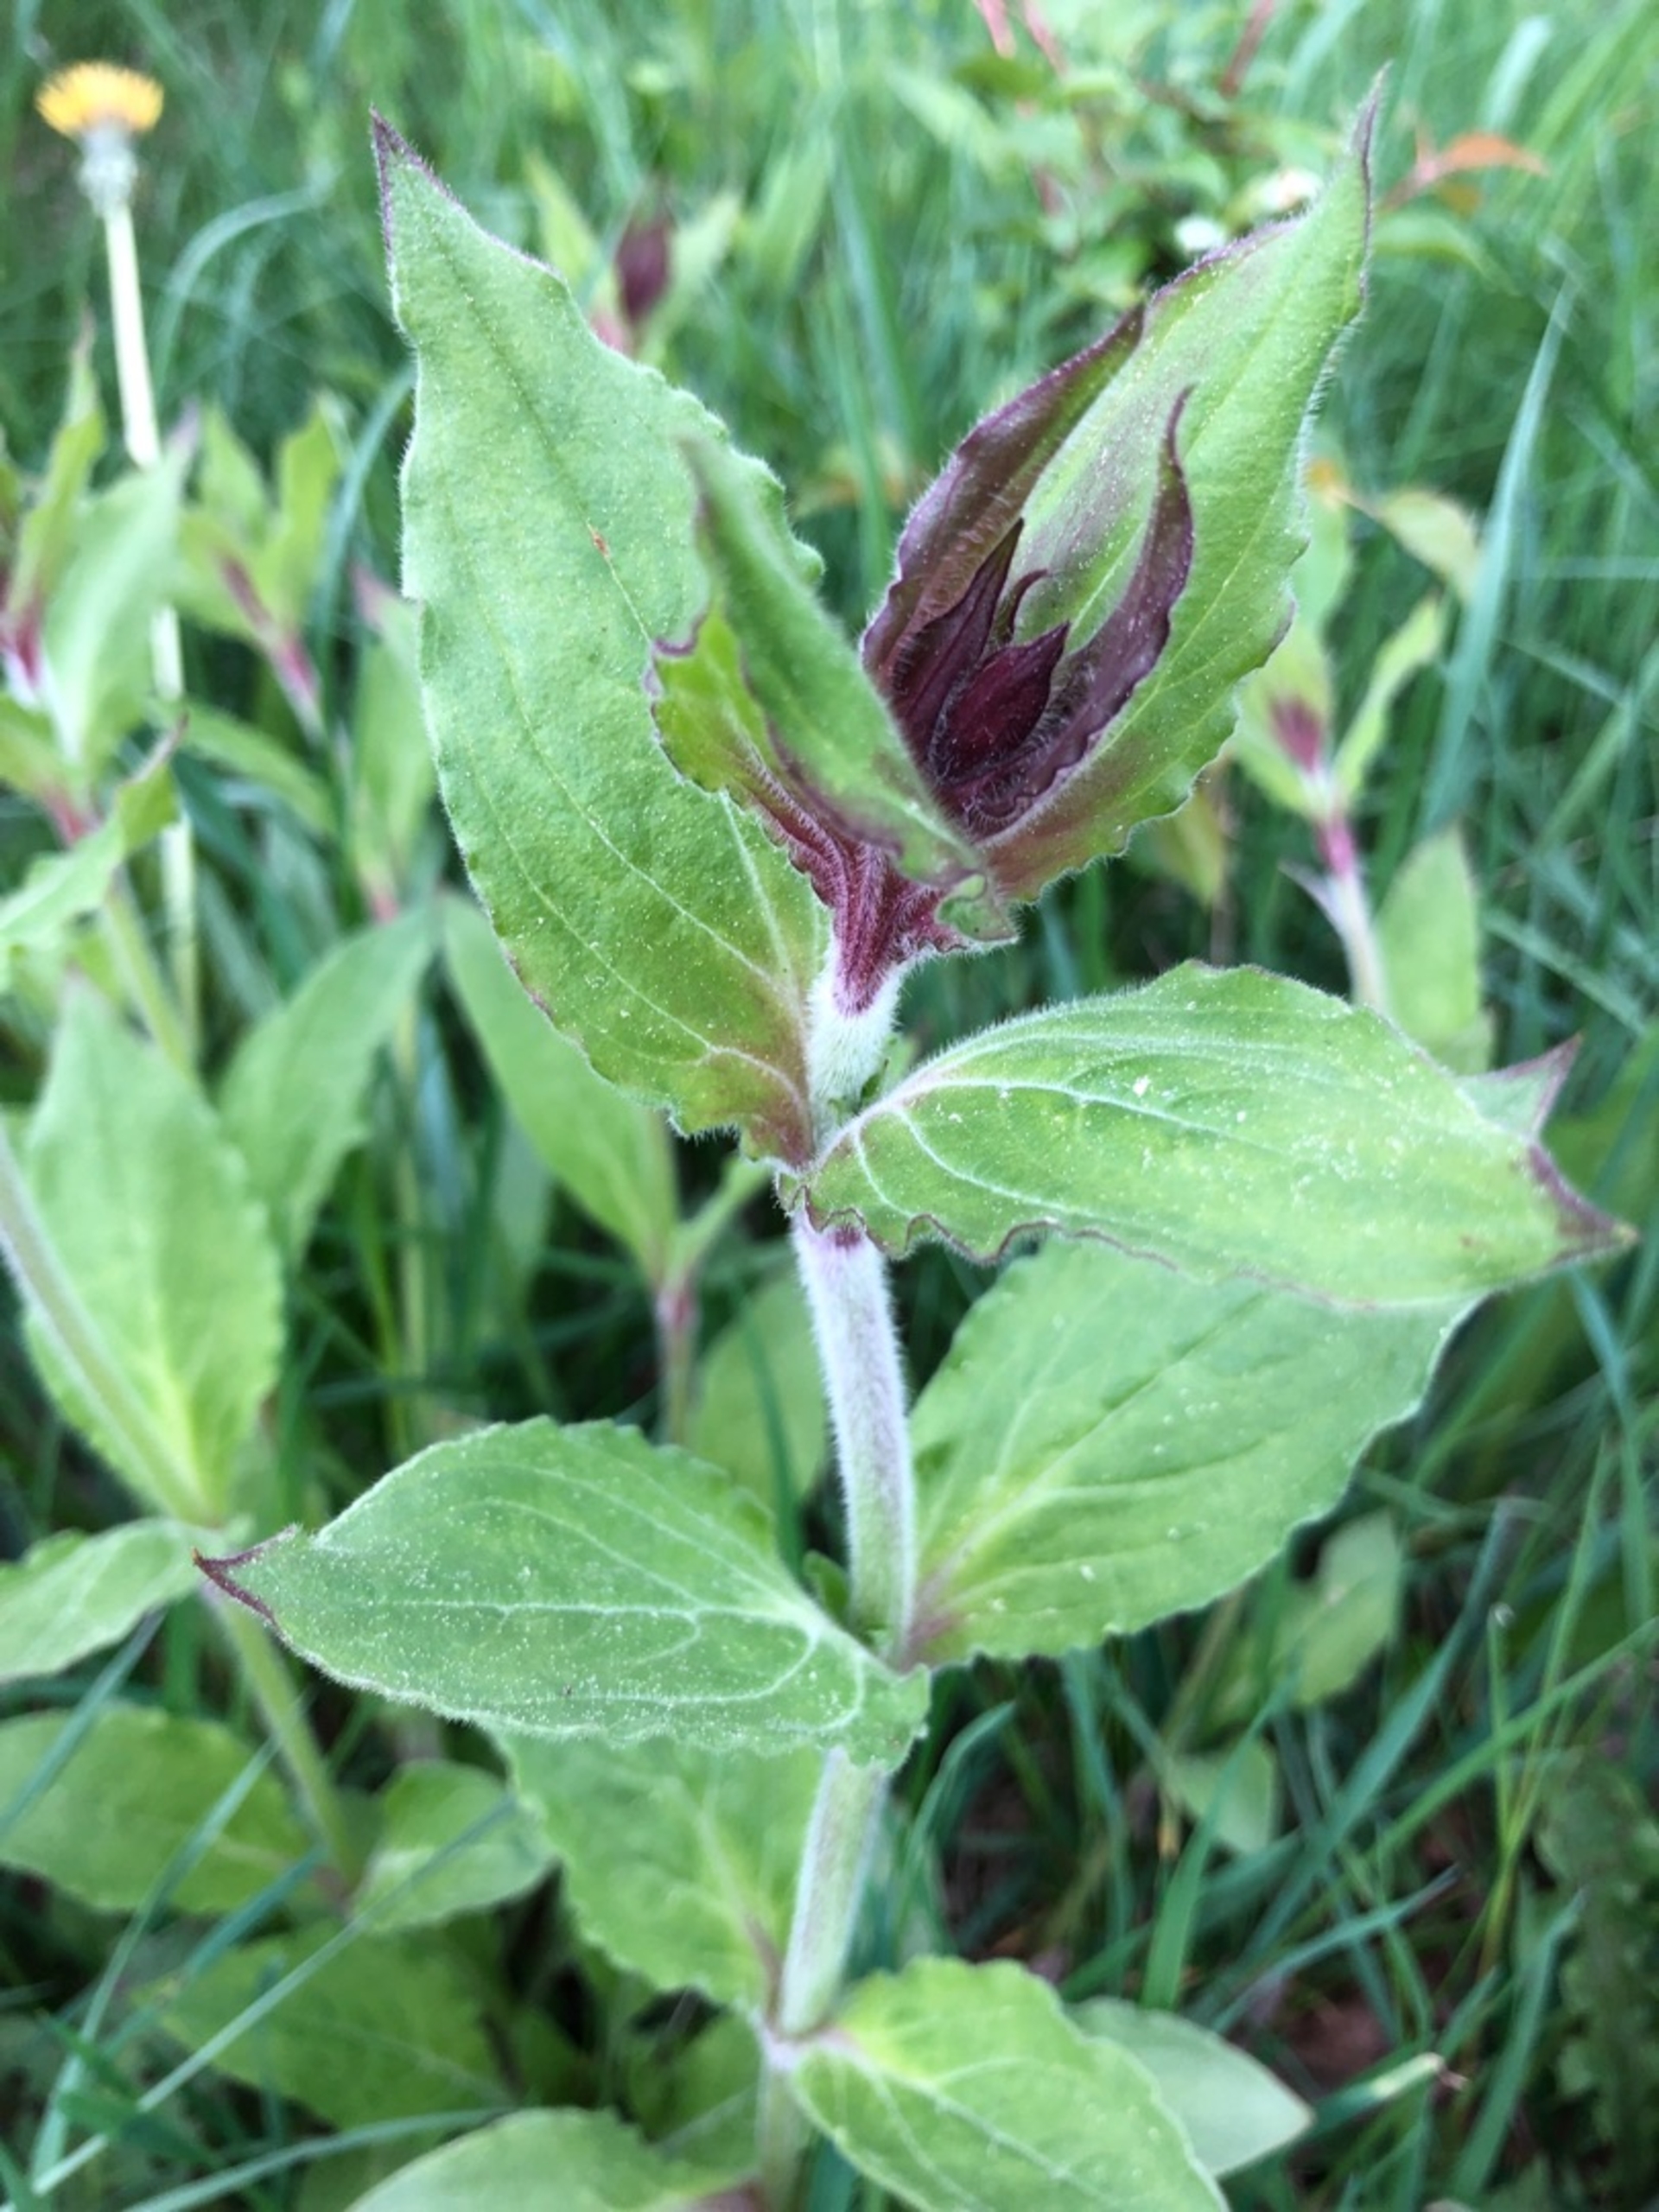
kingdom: Plantae
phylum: Tracheophyta
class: Magnoliopsida
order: Caryophyllales
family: Caryophyllaceae
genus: Silene
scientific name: Silene dioica
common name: Dagpragtstjerne
